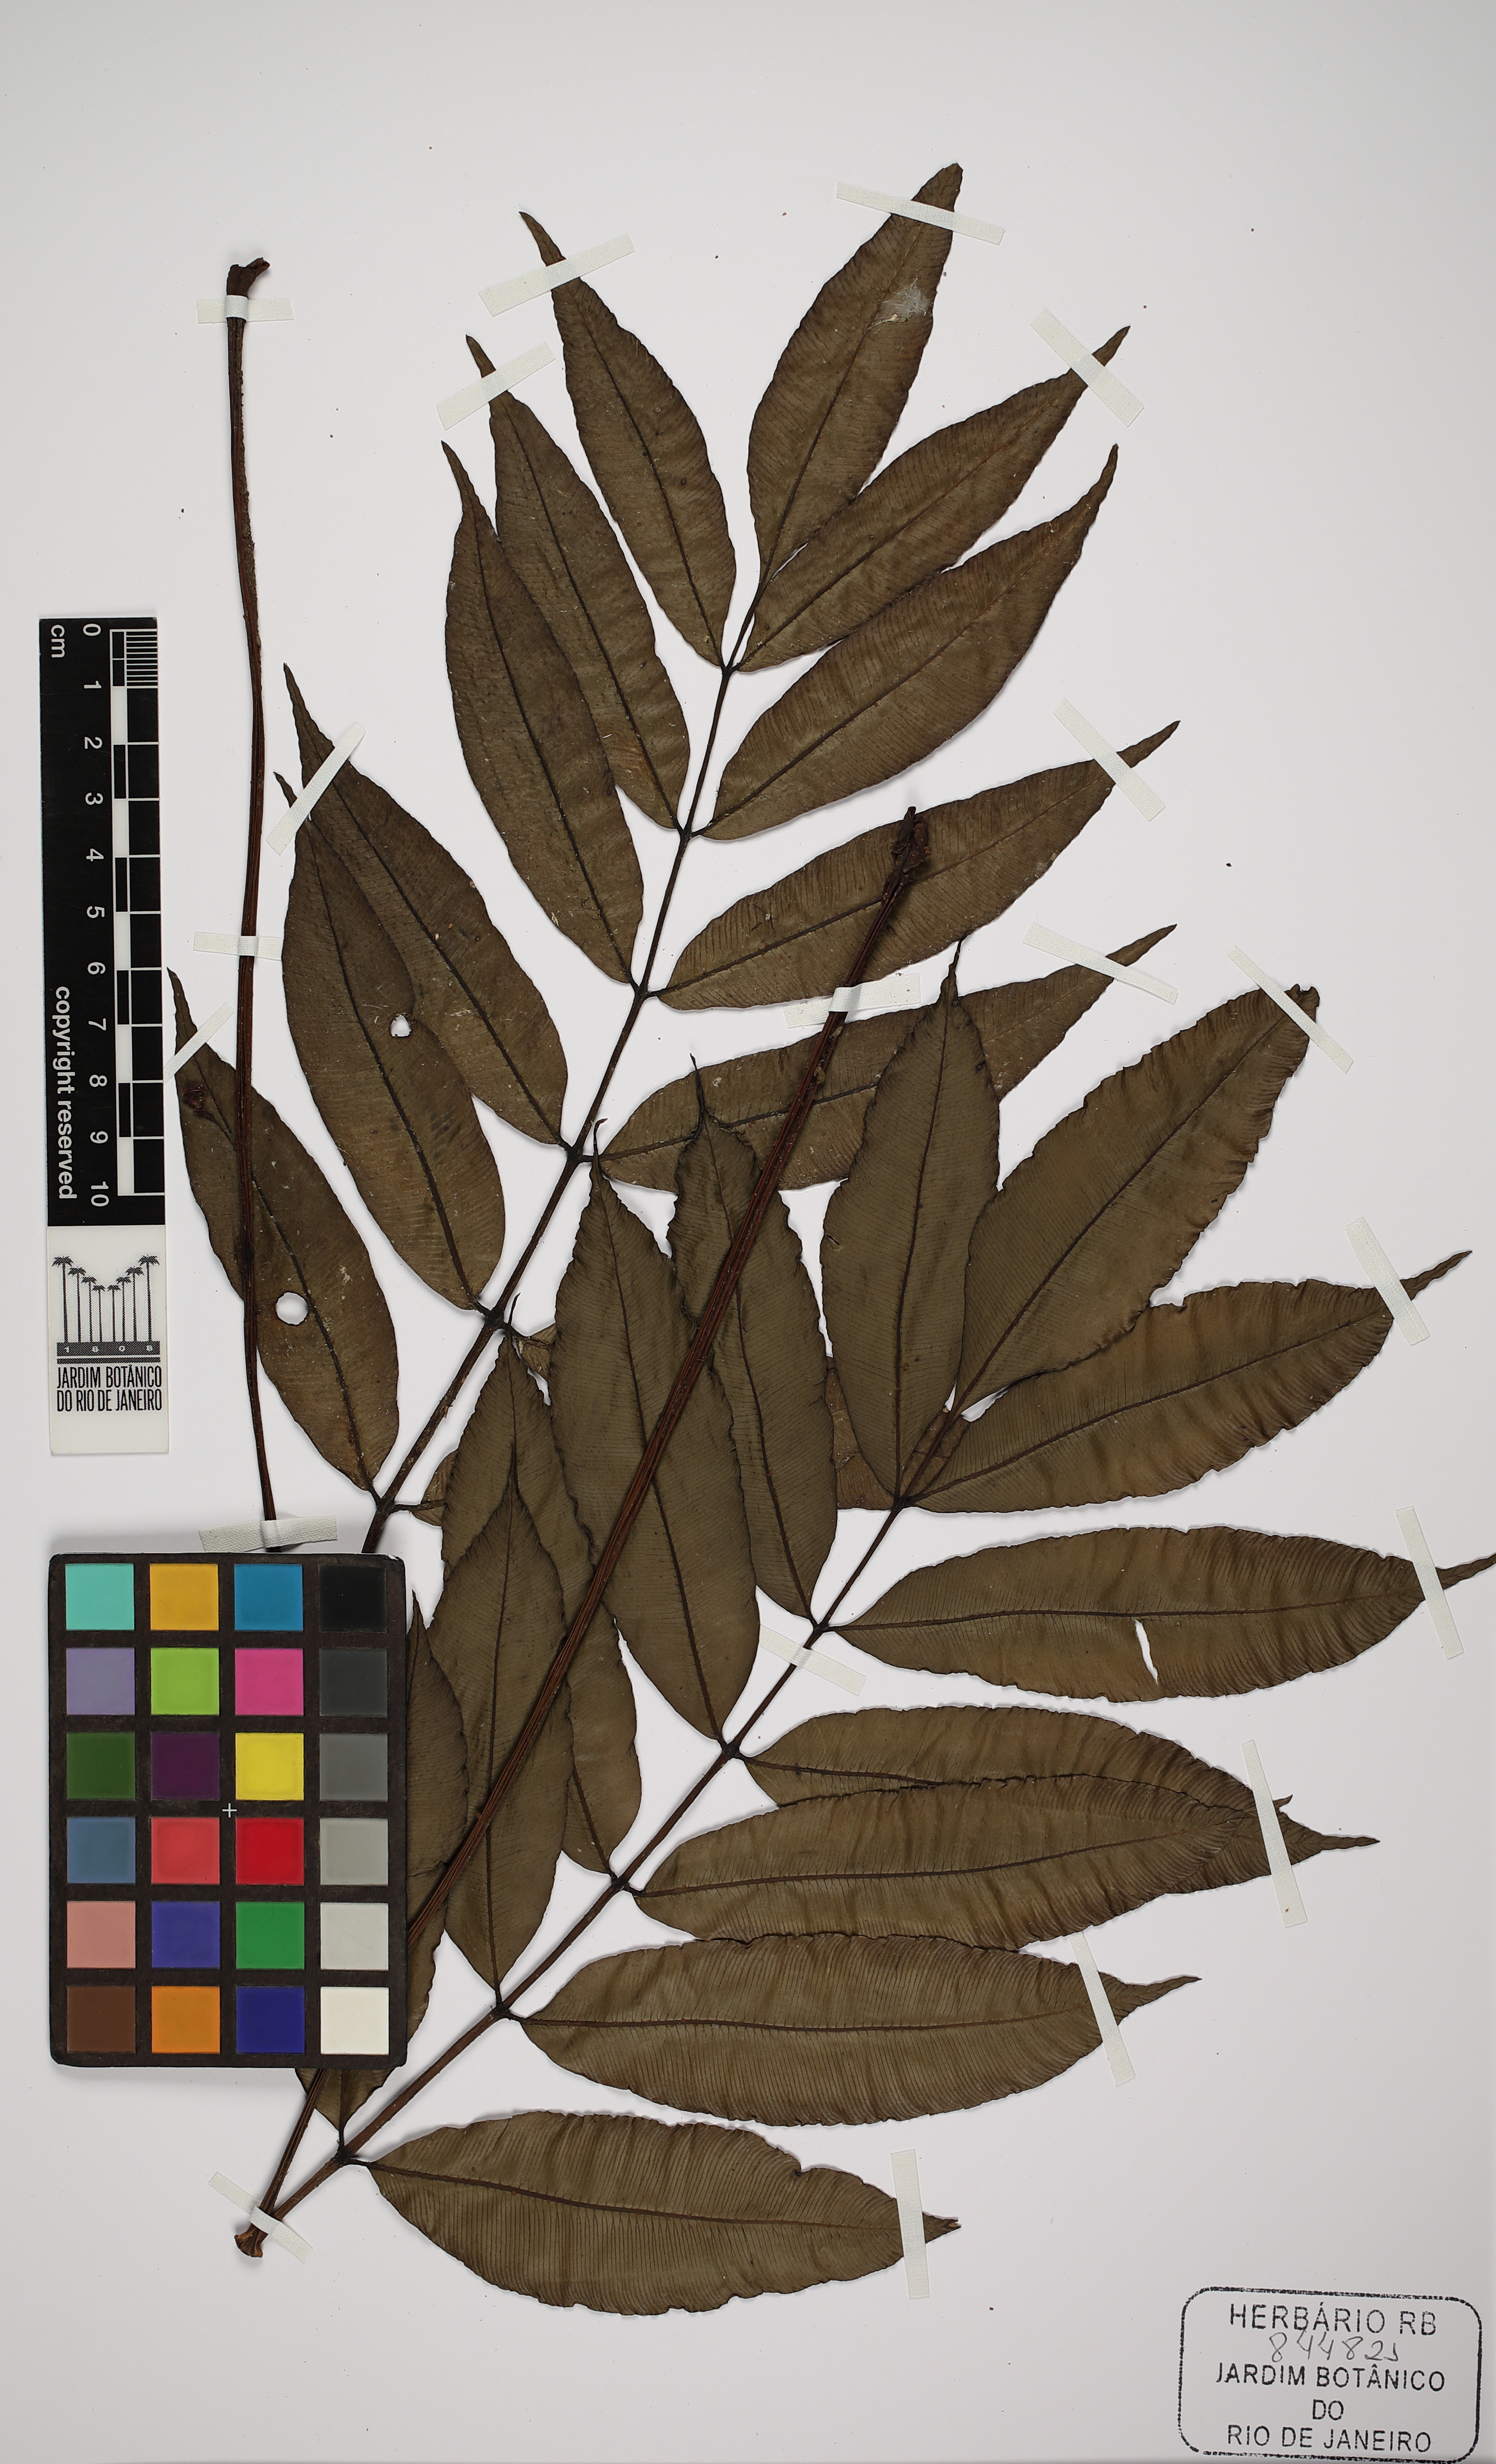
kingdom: Plantae
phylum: Tracheophyta
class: Polypodiopsida
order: Marattiales
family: Marattiaceae
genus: Danaea
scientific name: Danaea geniculata
